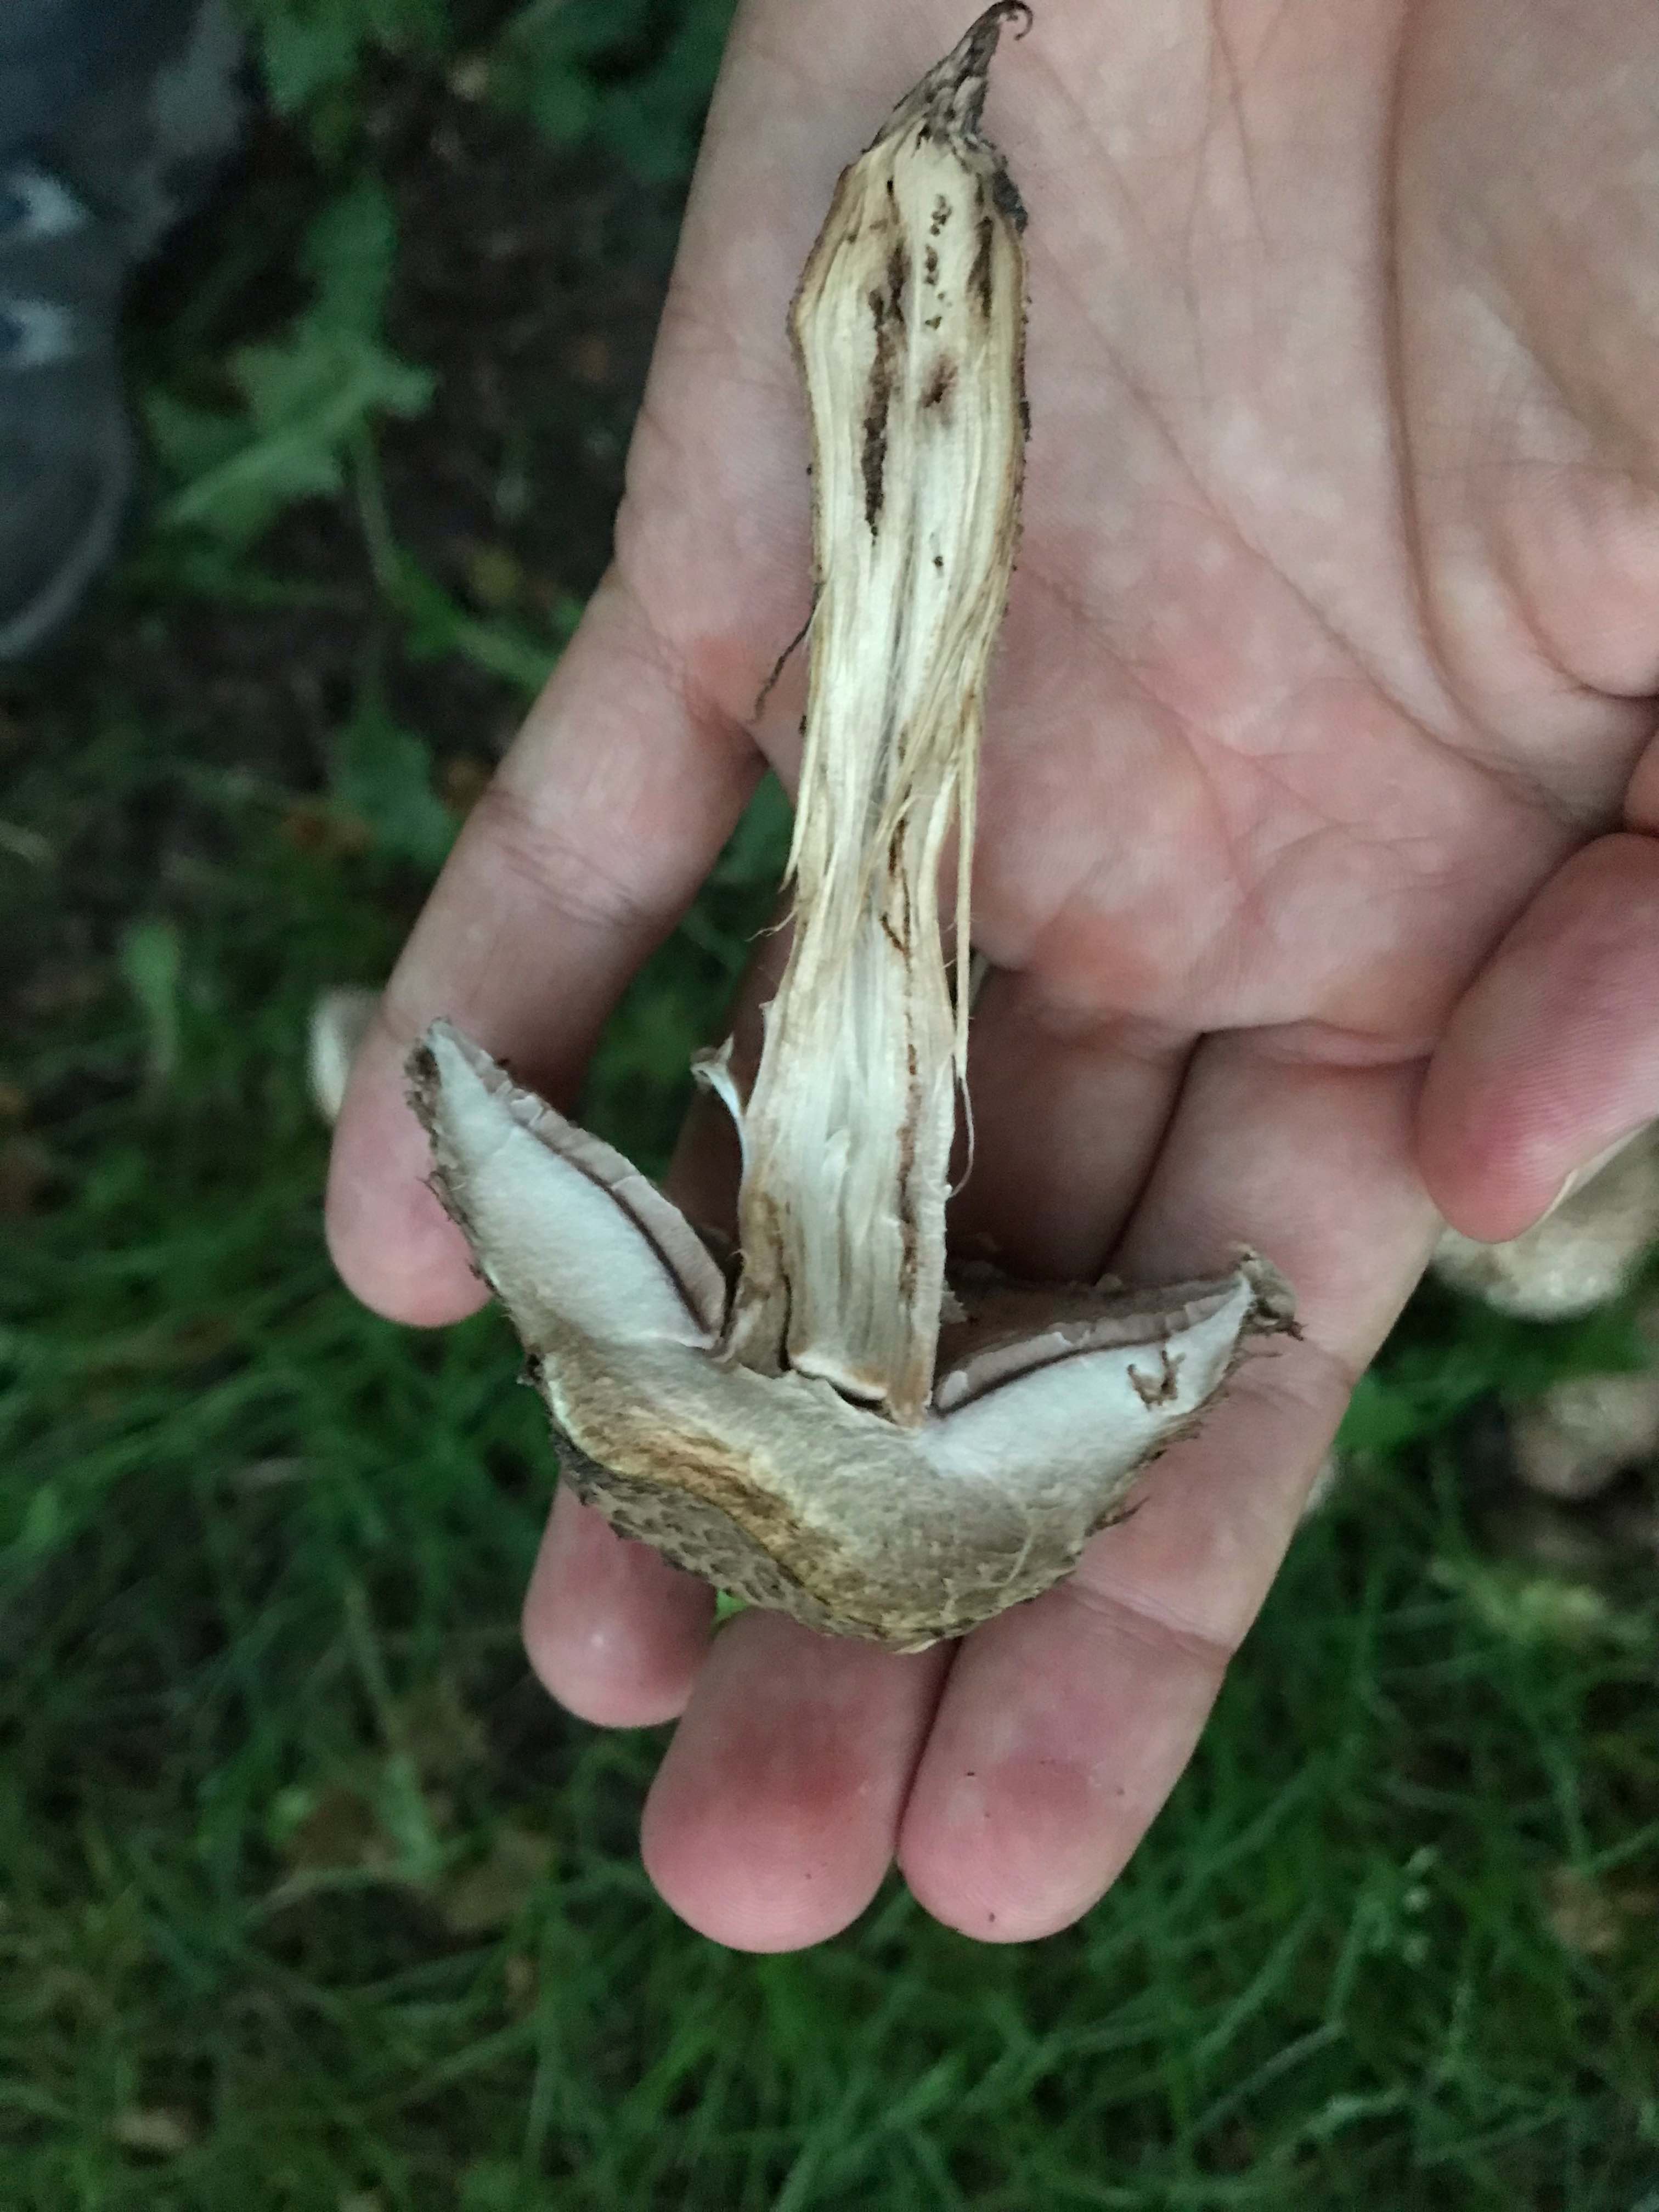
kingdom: Fungi
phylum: Basidiomycota
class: Agaricomycetes
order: Agaricales
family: Agaricaceae
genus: Agaricus
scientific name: Agaricus bohusii
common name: krumskællet champignon
